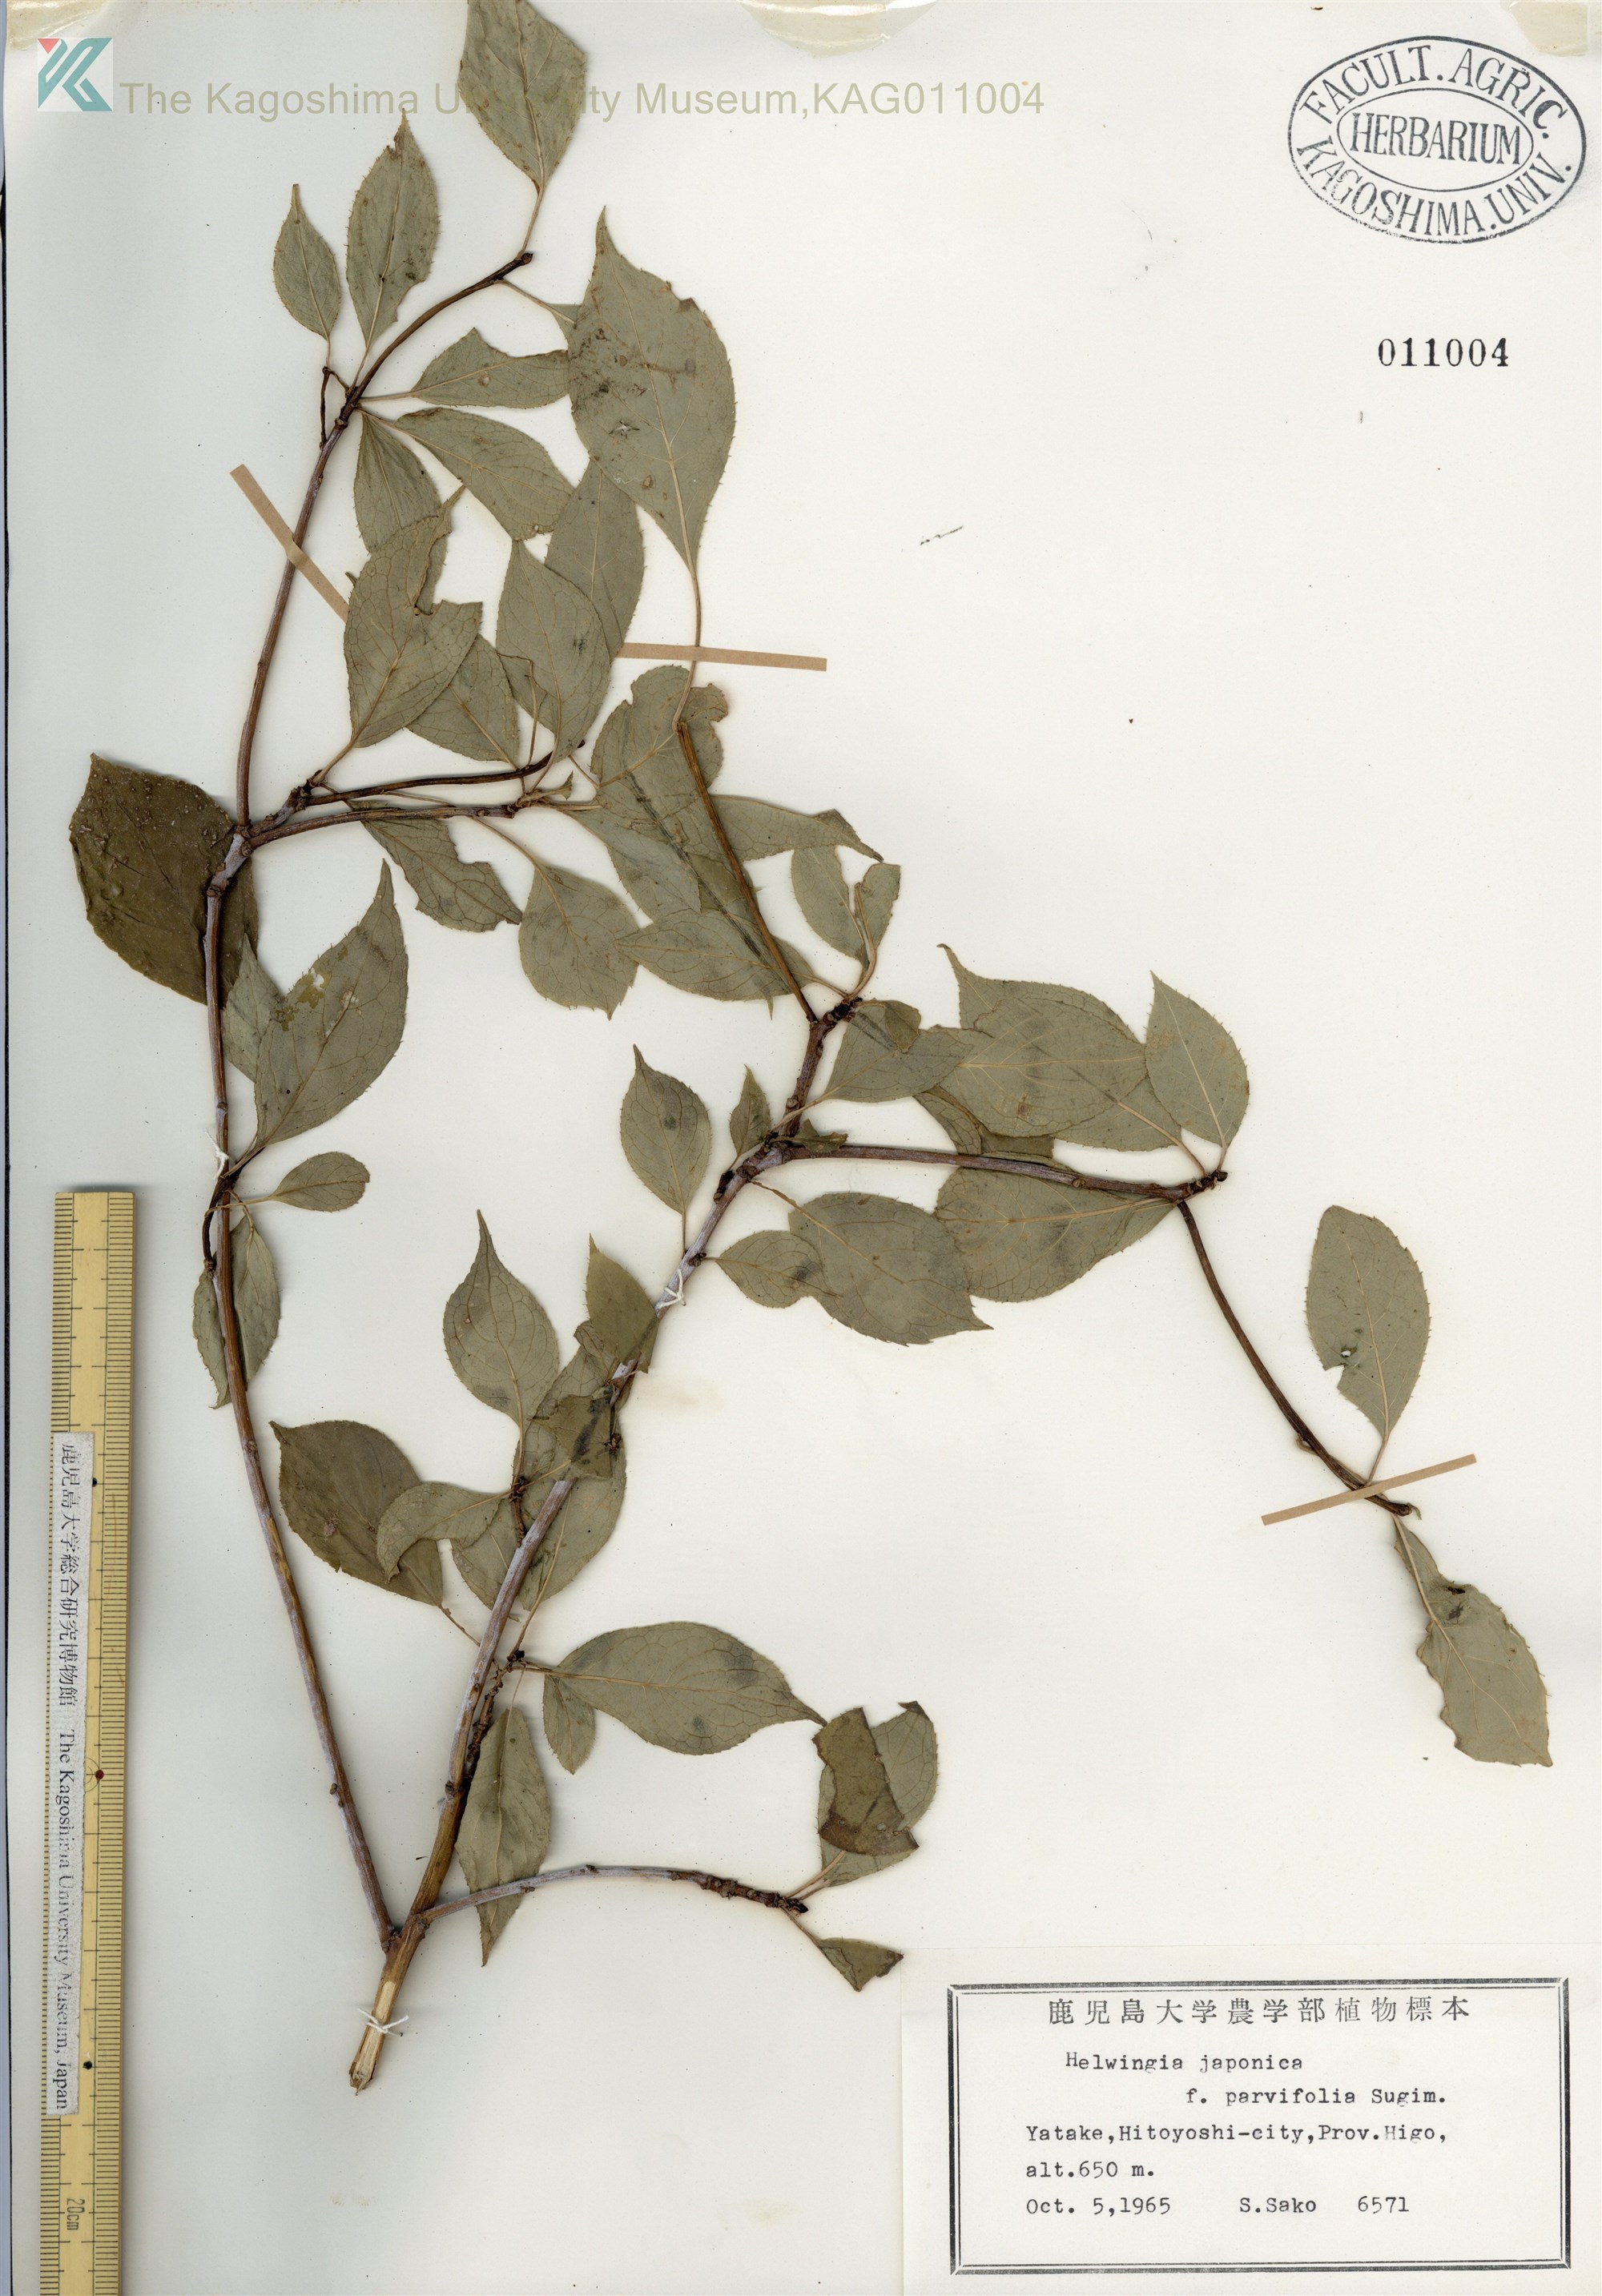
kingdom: Plantae
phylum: Tracheophyta
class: Magnoliopsida
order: Aquifoliales
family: Helwingiaceae
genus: Helwingia
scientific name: Helwingia japonica
